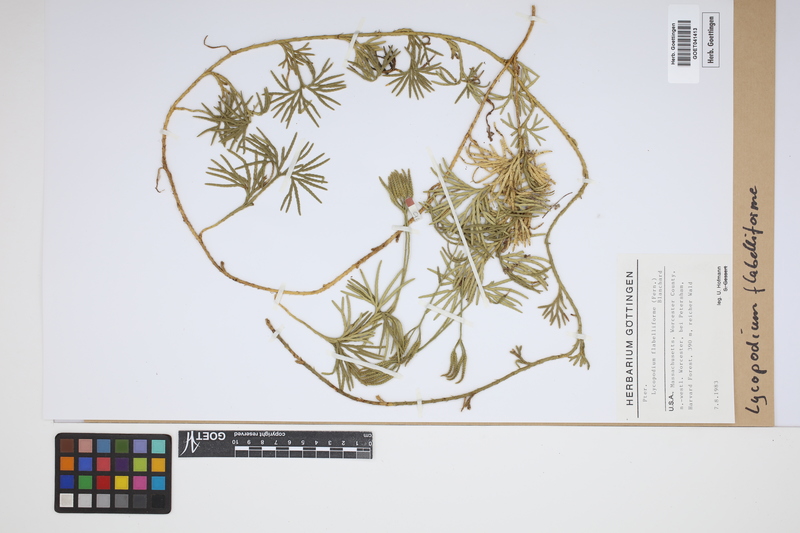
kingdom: Plantae
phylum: Tracheophyta
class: Lycopodiopsida
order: Lycopodiales
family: Lycopodiaceae
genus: Diphasiastrum
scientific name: Diphasiastrum digitatum
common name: Southern running-pine
